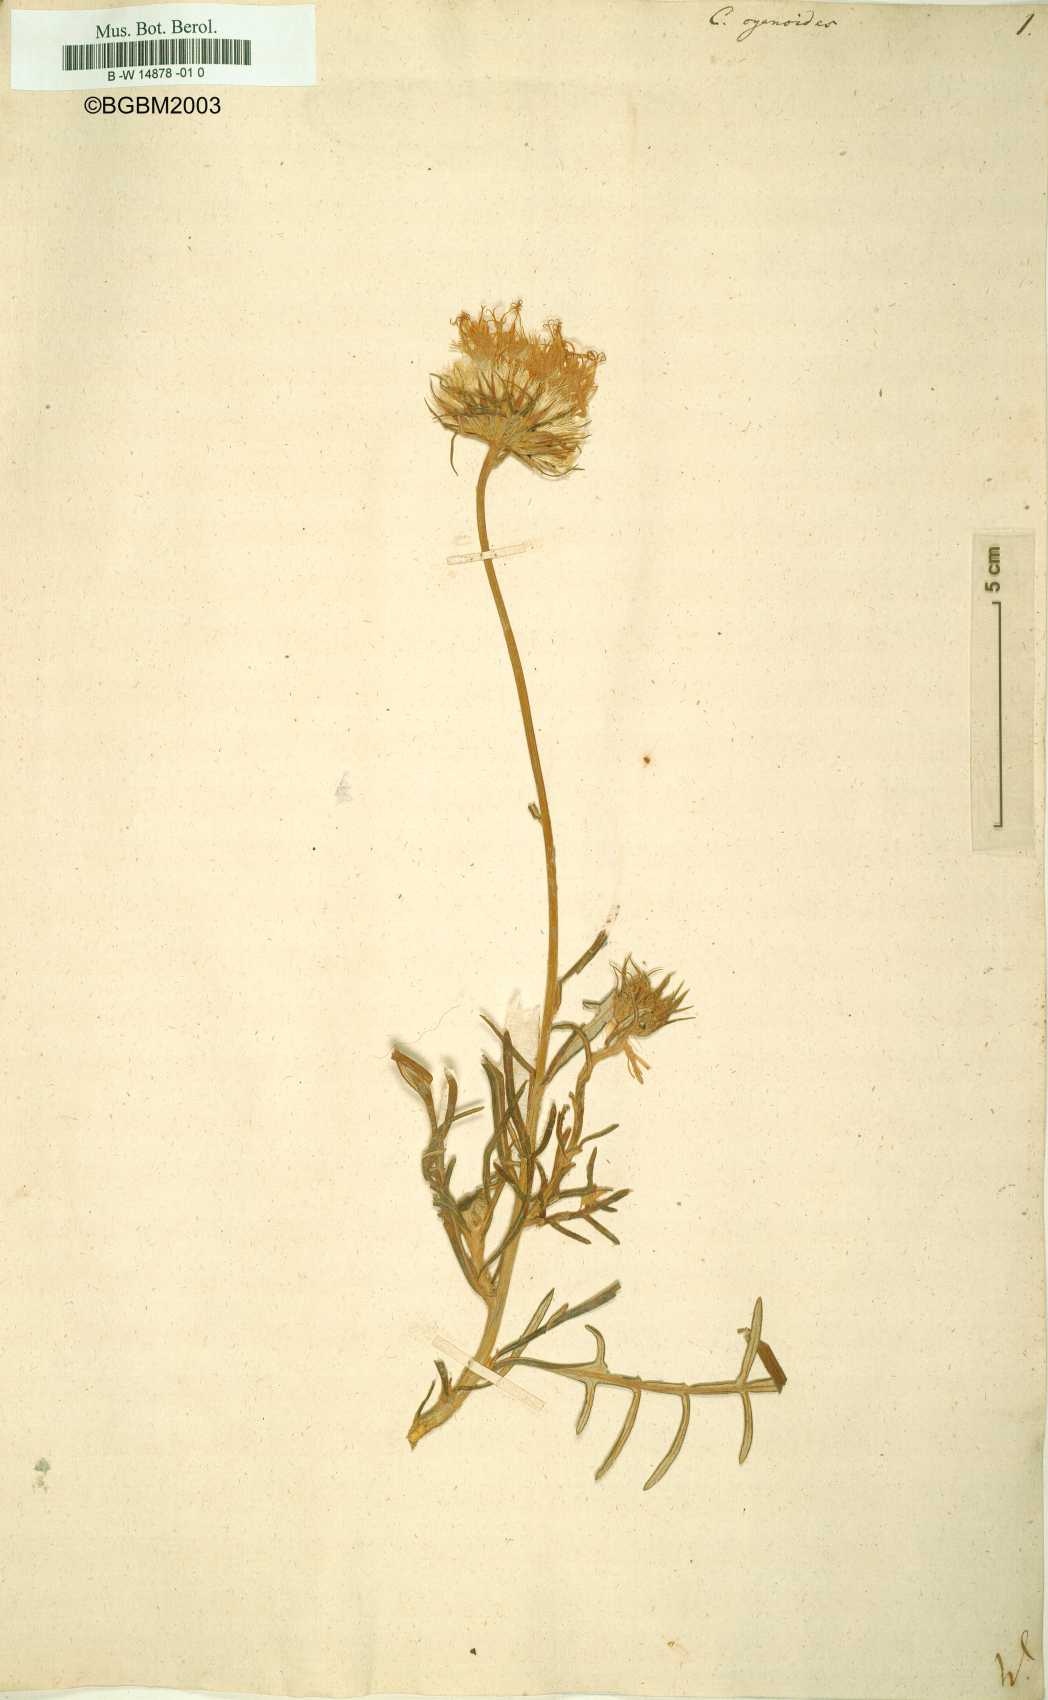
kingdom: Plantae
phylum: Tracheophyta
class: Magnoliopsida
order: Asterales
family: Asteraceae
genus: Jurinea
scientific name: Jurinea
